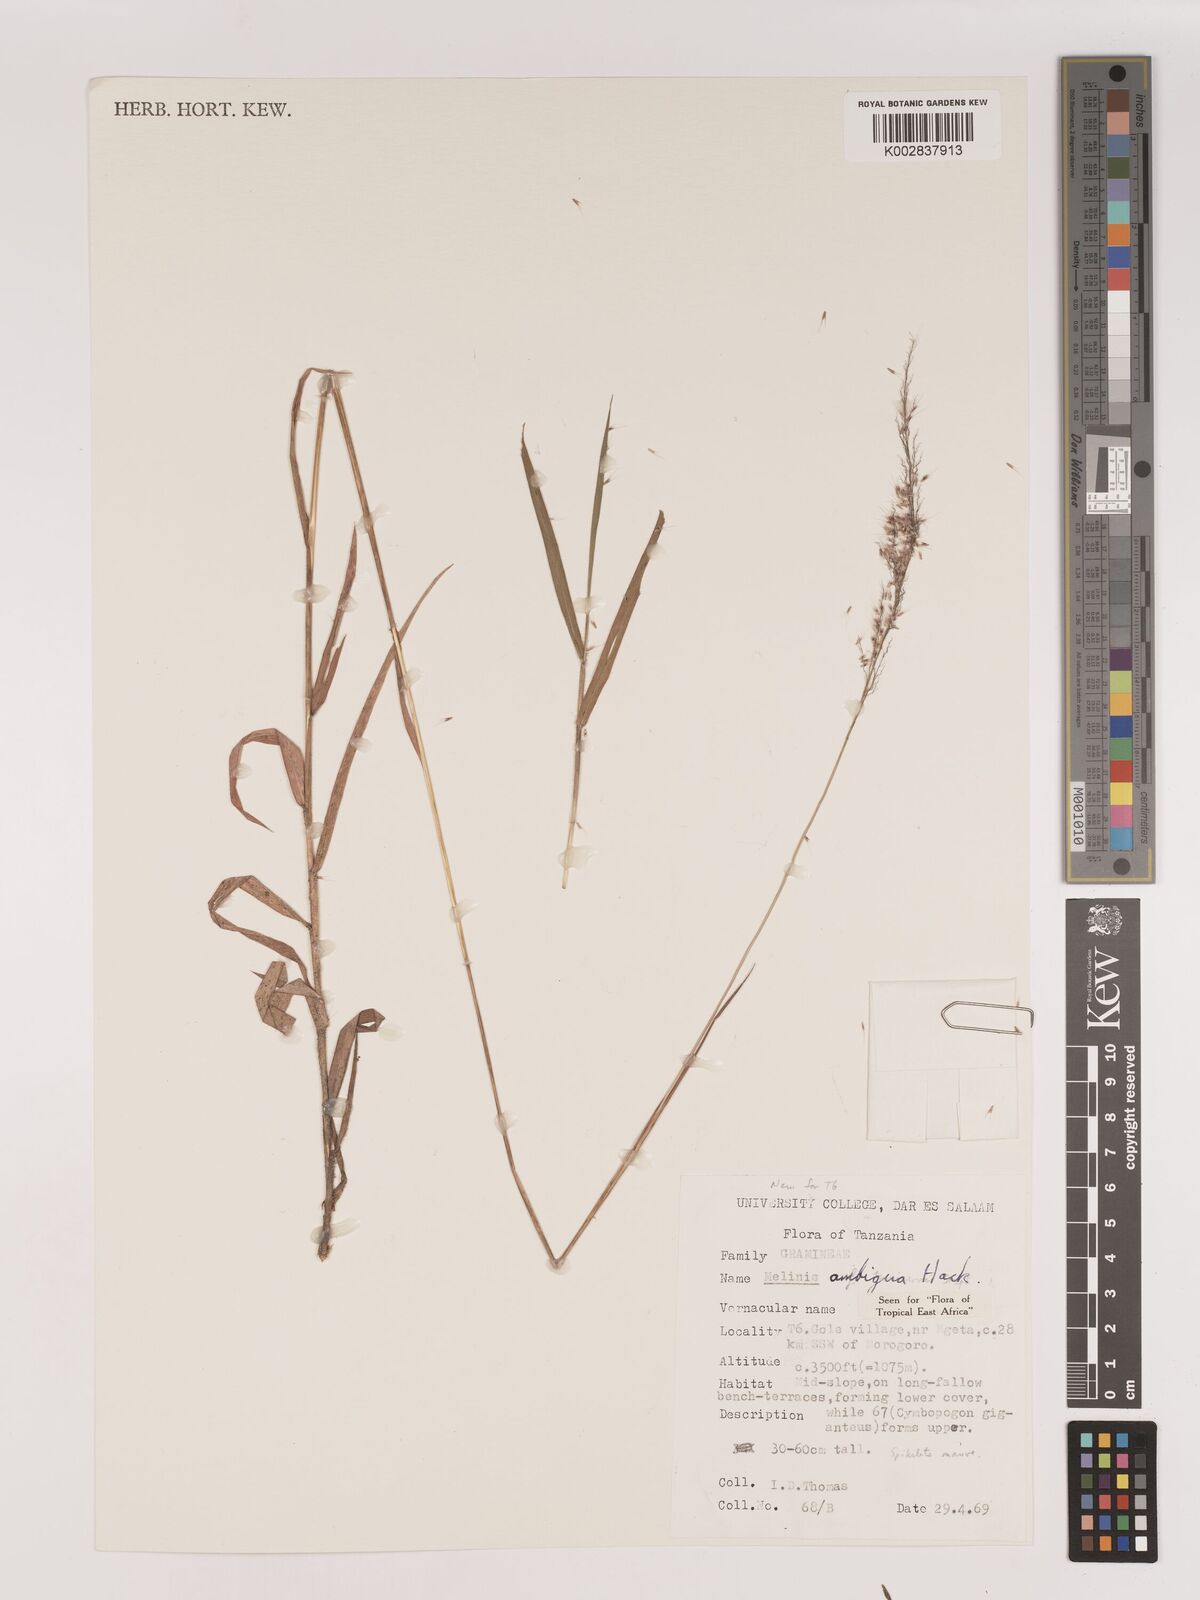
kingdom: Plantae
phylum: Tracheophyta
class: Liliopsida
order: Poales
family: Poaceae
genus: Melinis
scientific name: Melinis ambigua
